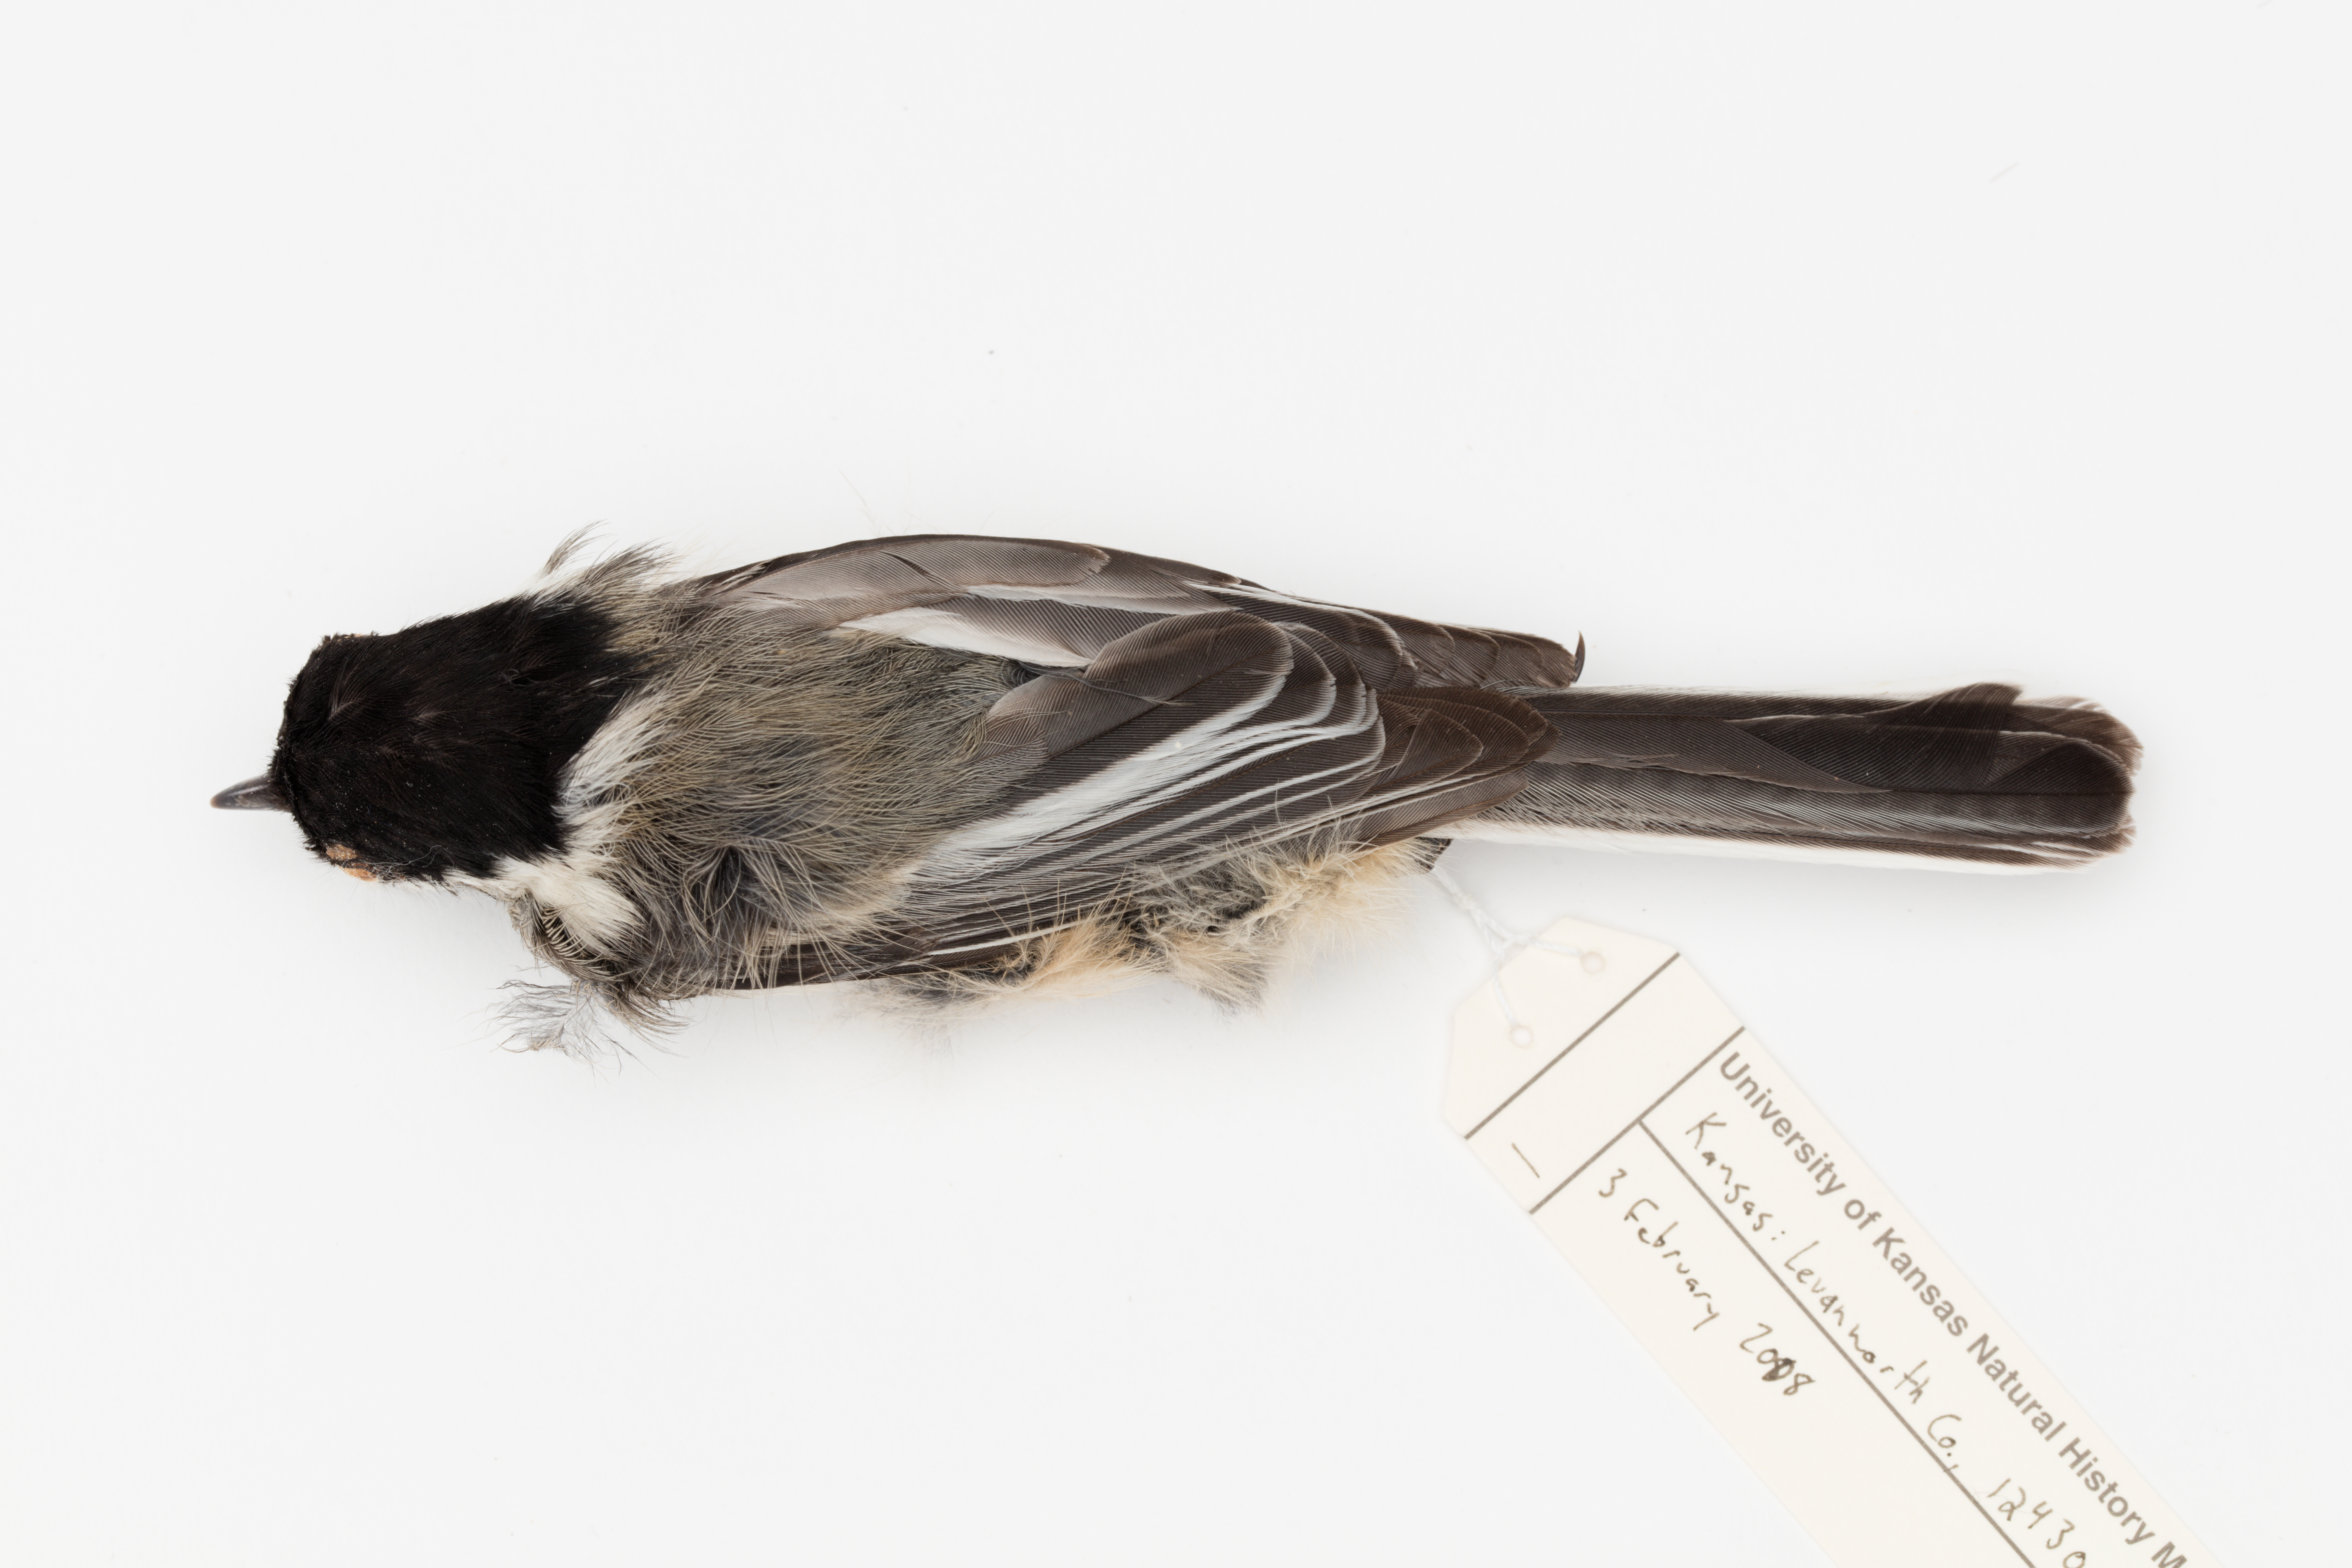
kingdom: Animalia
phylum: Chordata
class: Aves
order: Passeriformes
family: Paridae
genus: Poecile
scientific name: Poecile atricapillus
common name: Black-capped chickadee
